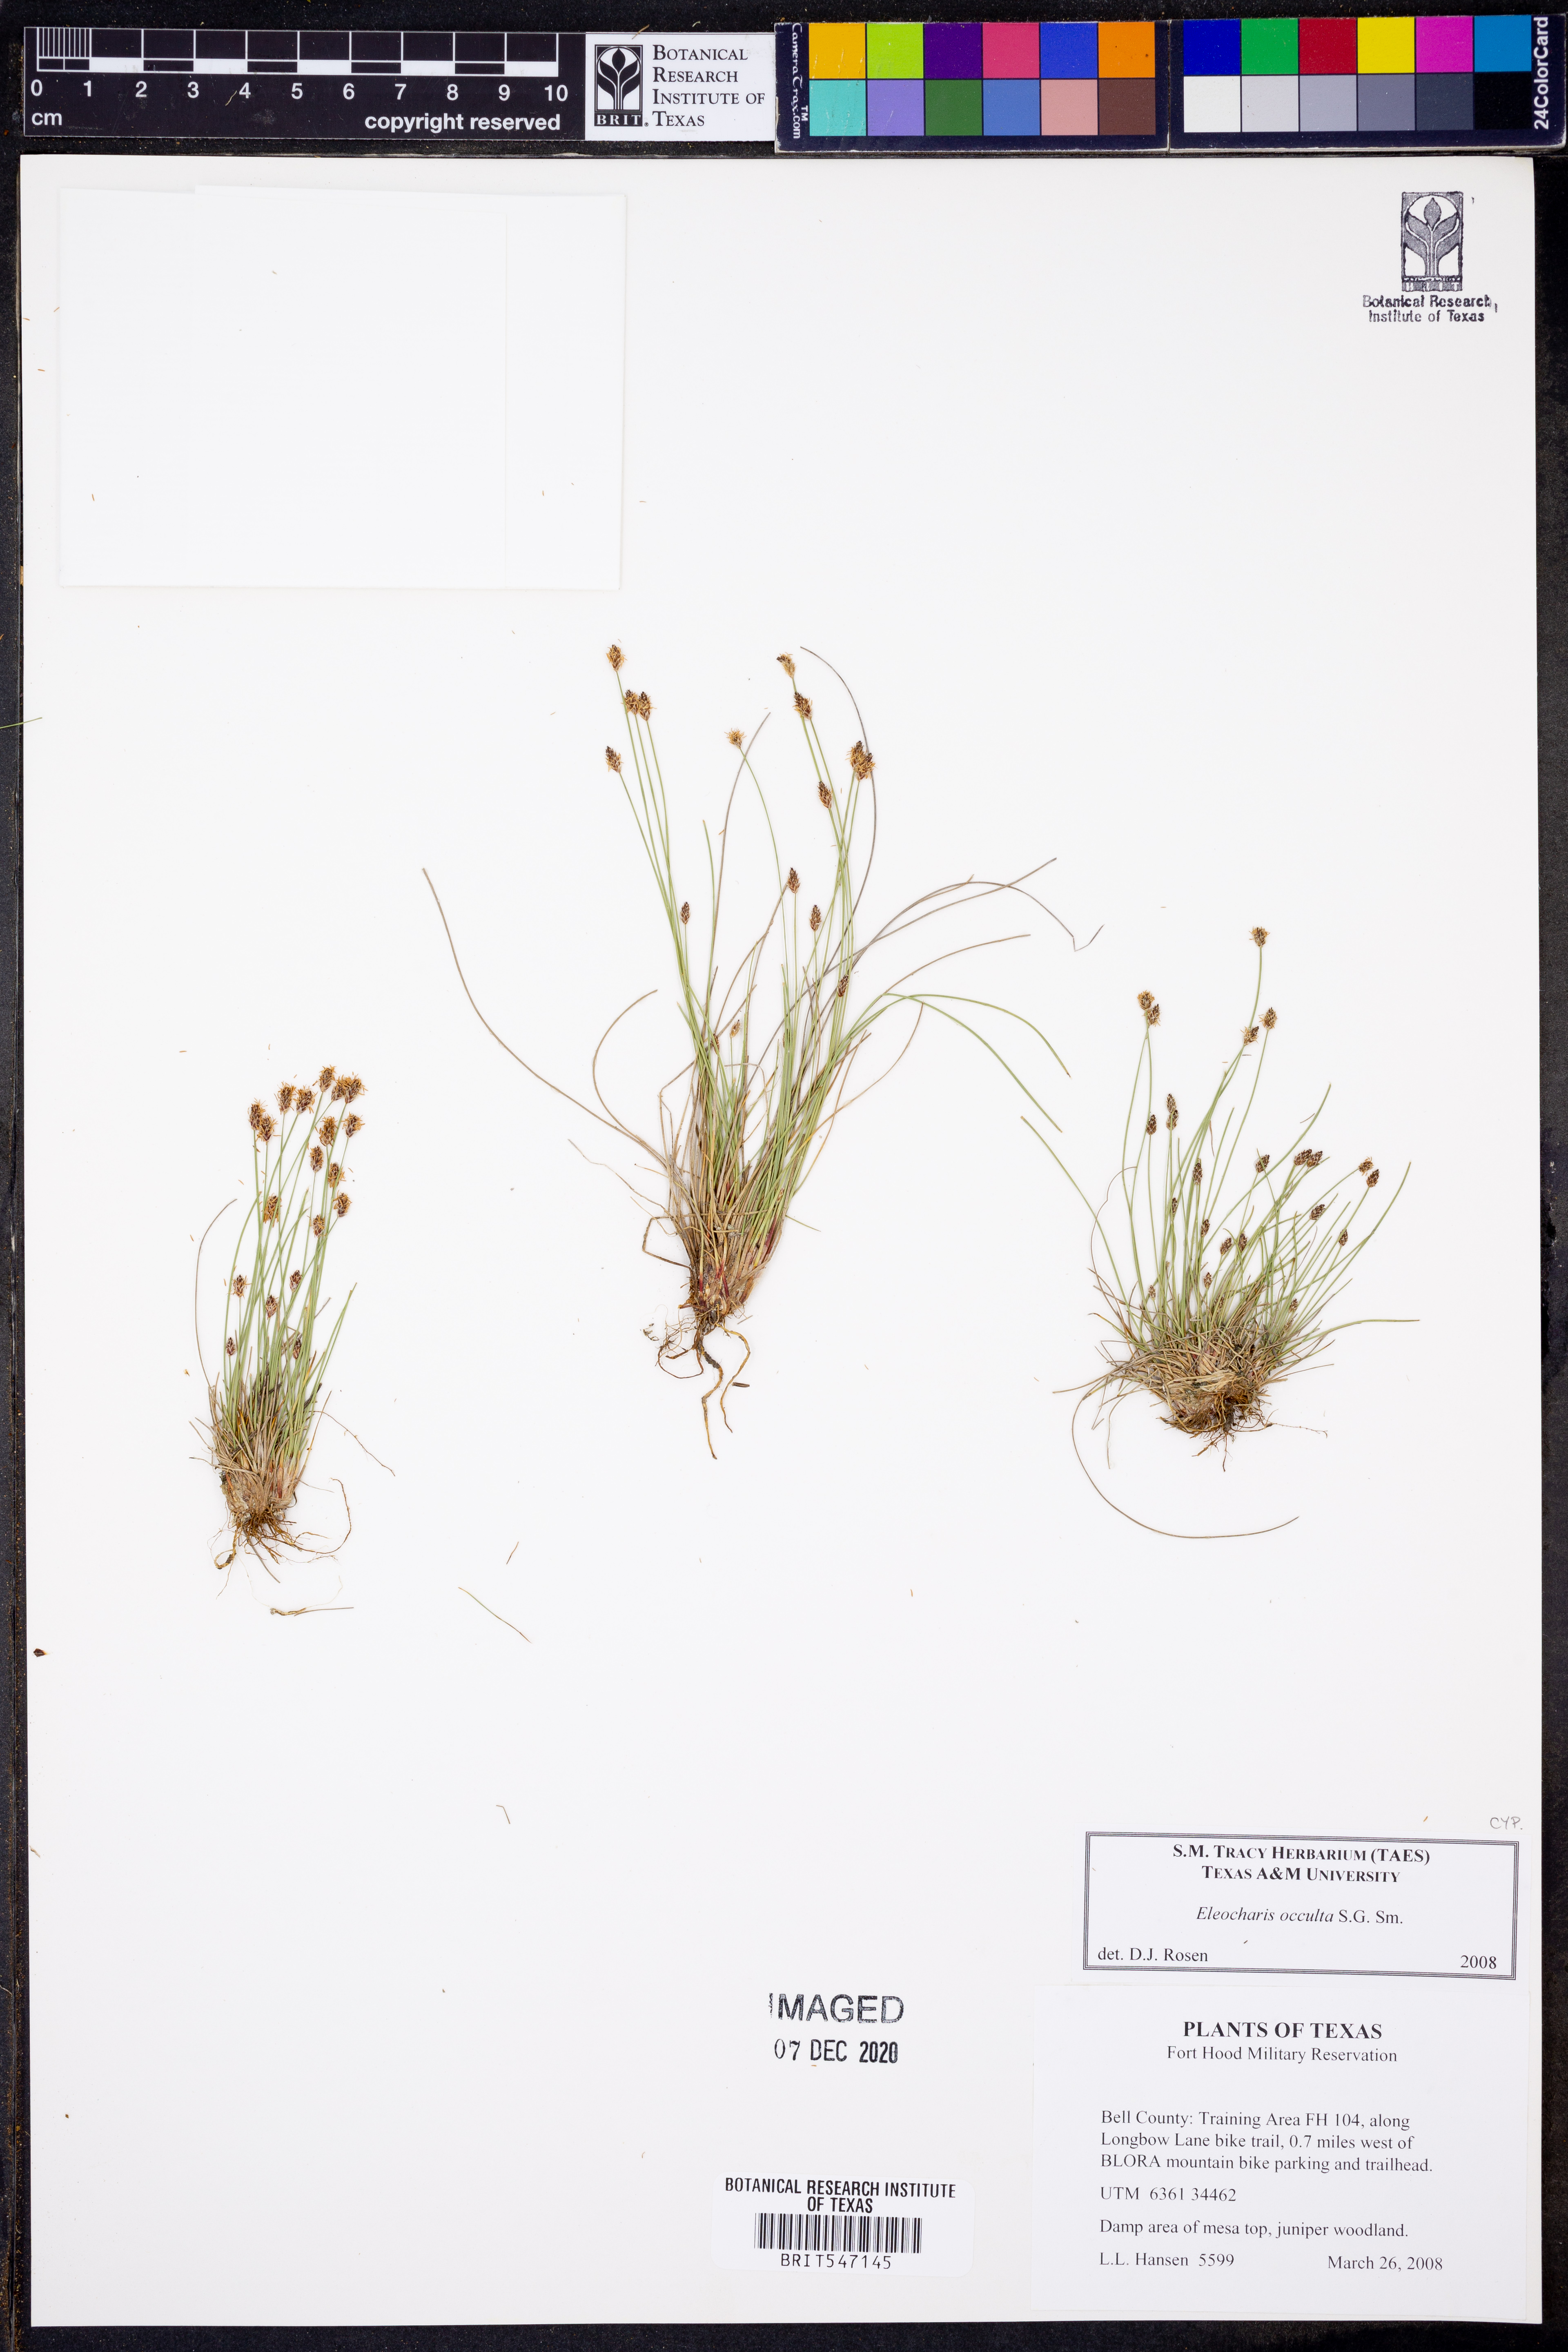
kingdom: Plantae
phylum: Tracheophyta
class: Liliopsida
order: Poales
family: Cyperaceae
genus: Eleocharis
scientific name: Eleocharis occulta
